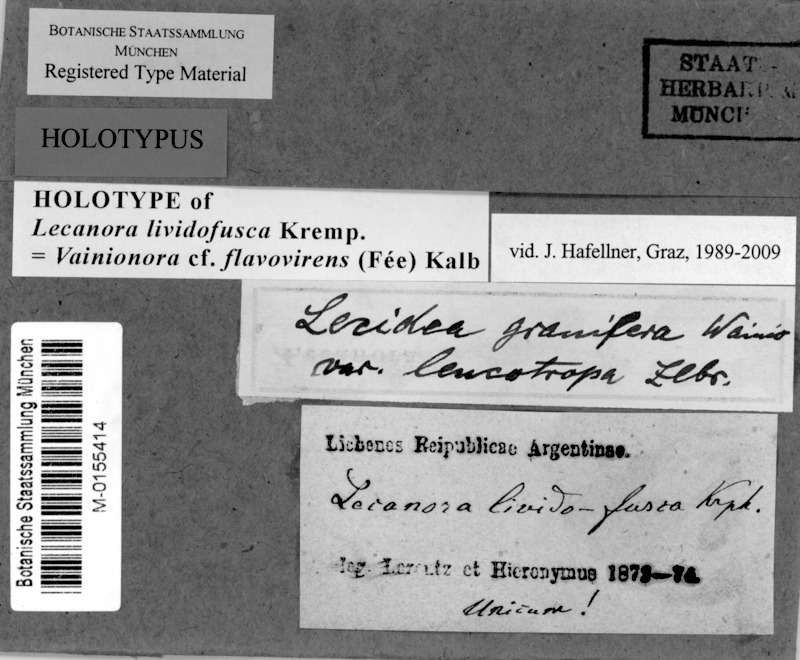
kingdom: Fungi
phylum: Ascomycota
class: Lecanoromycetes
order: Lecanorales
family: Lecanoraceae
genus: Vainionora
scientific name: Vainionora flavovirens
